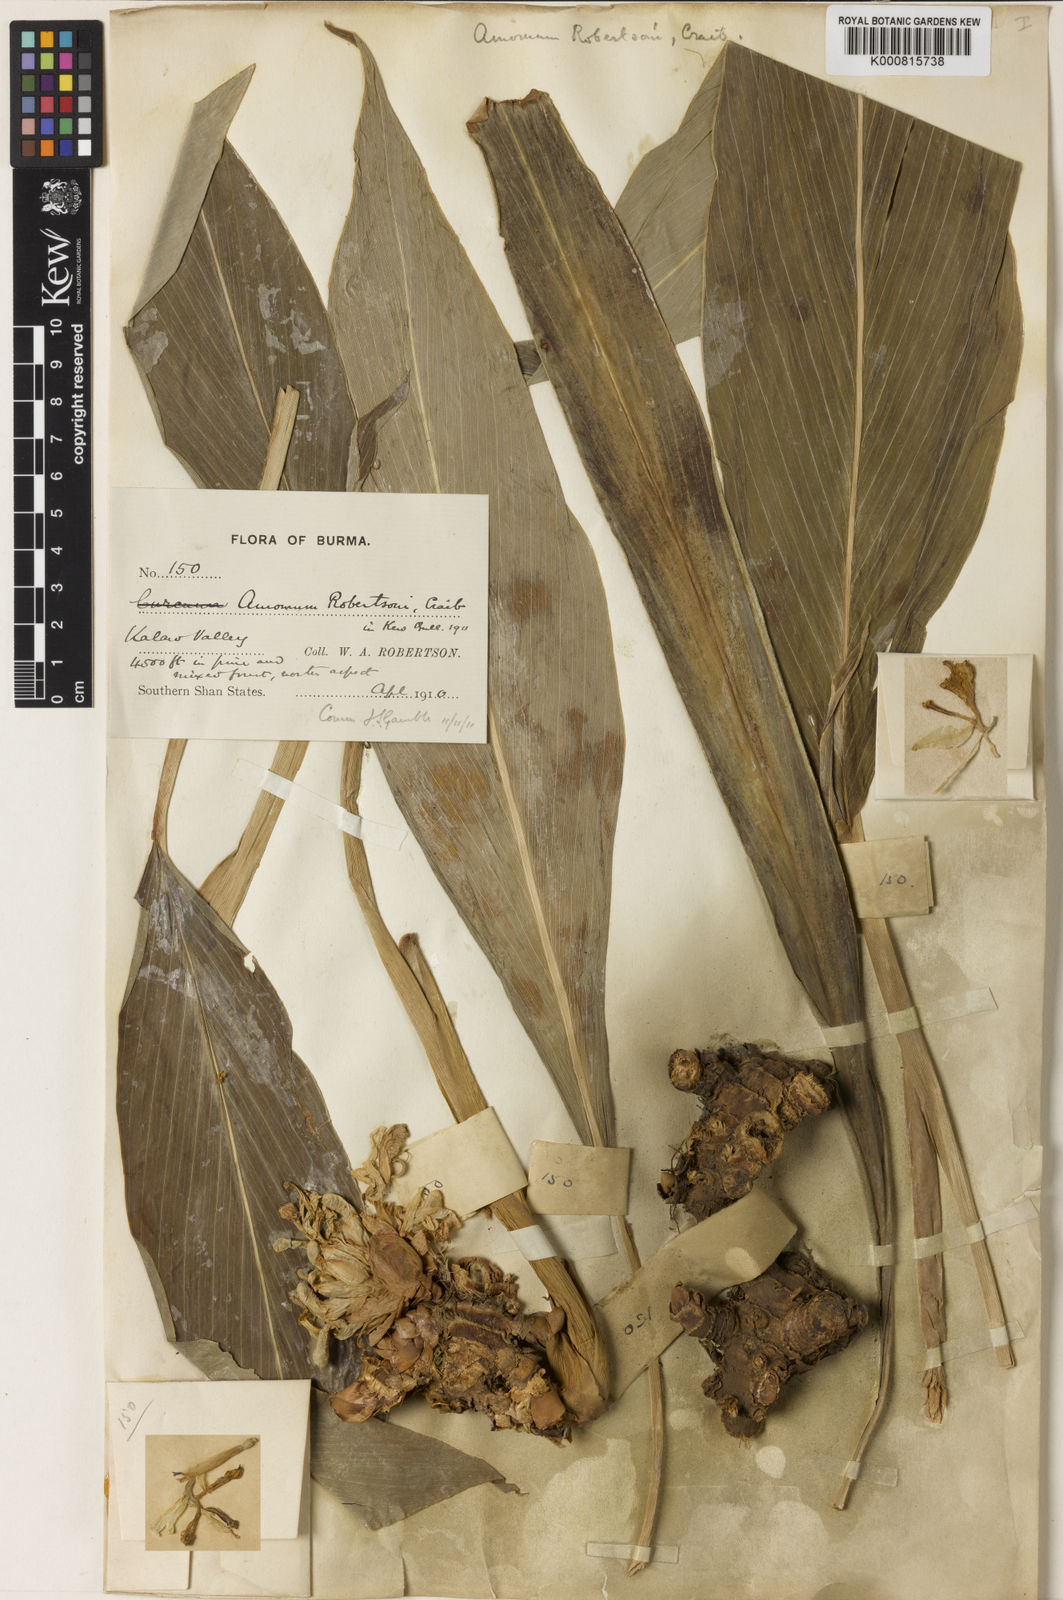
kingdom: Plantae
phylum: Tracheophyta
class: Liliopsida
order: Zingiberales
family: Zingiberaceae
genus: Amomum
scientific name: Amomum robertsonii
